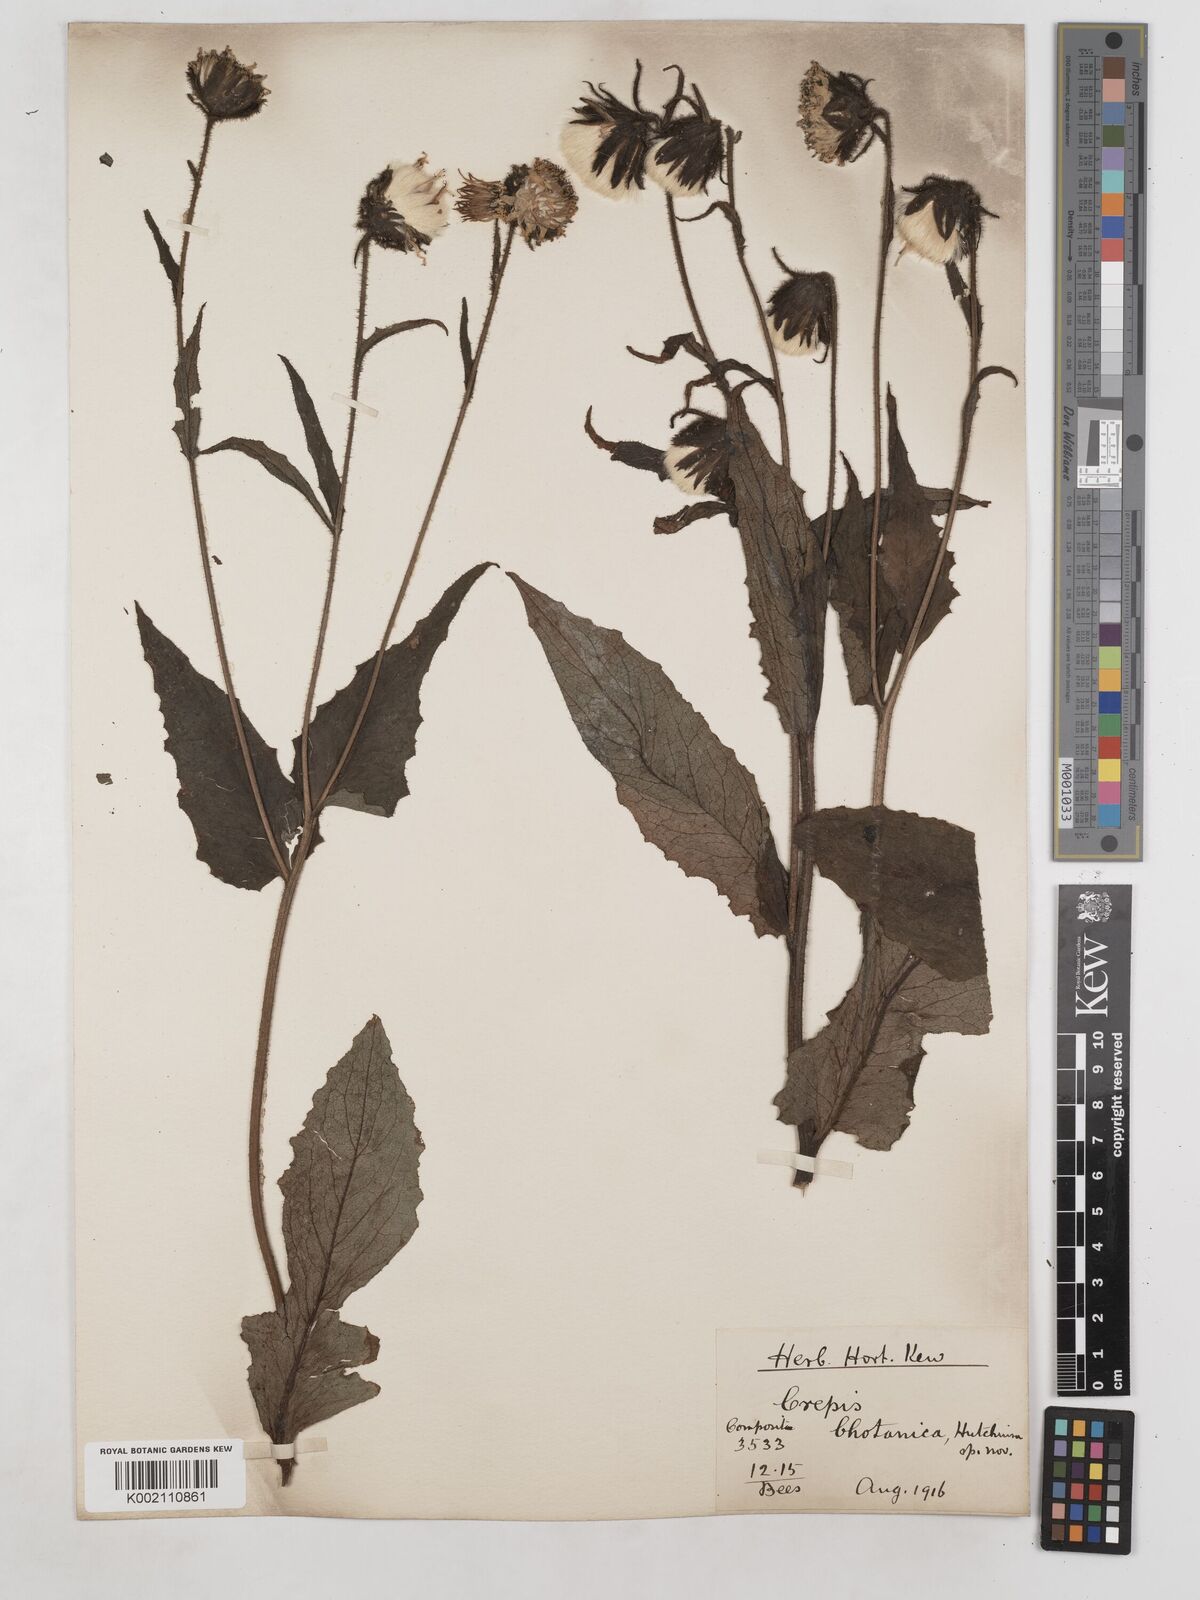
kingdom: Plantae
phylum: Tracheophyta
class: Magnoliopsida
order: Asterales
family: Asteraceae
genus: Dubyaea
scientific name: Dubyaea hispida
